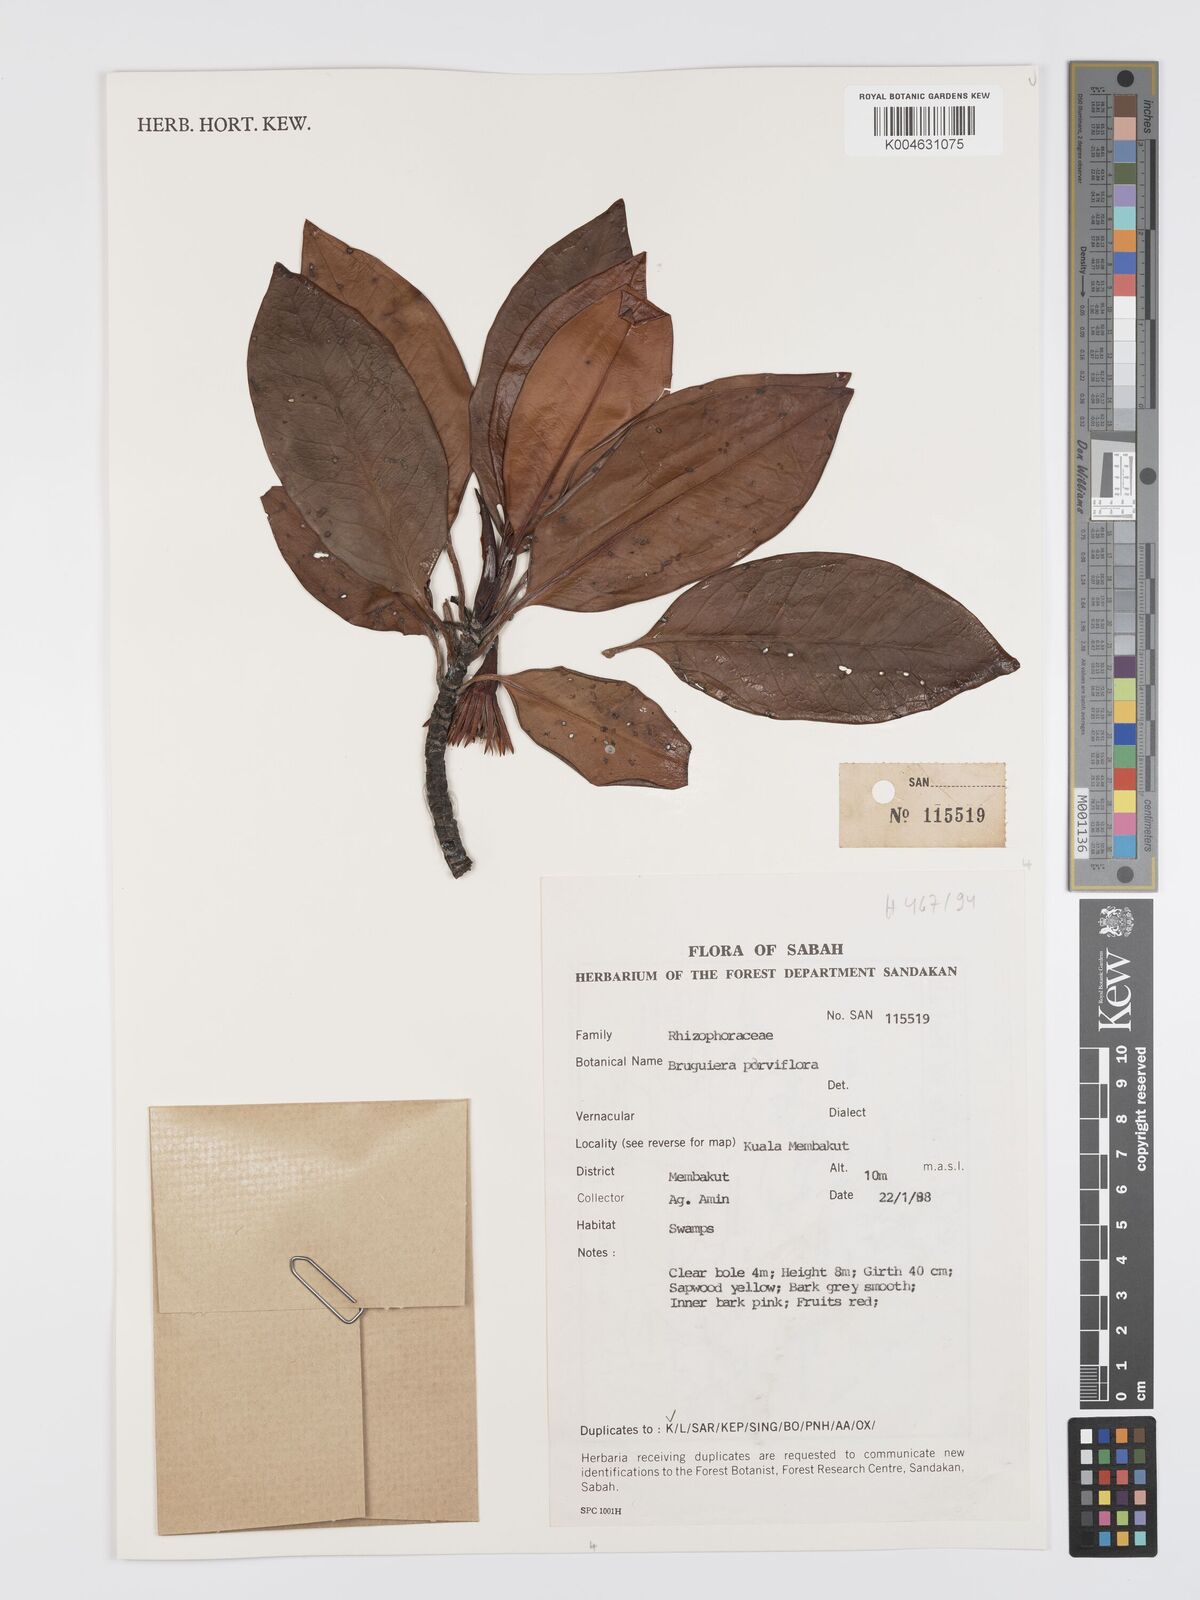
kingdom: Plantae
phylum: Tracheophyta
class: Magnoliopsida
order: Malpighiales
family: Rhizophoraceae
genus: Bruguiera
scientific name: Bruguiera parviflora
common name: Smallflower bruguiera
